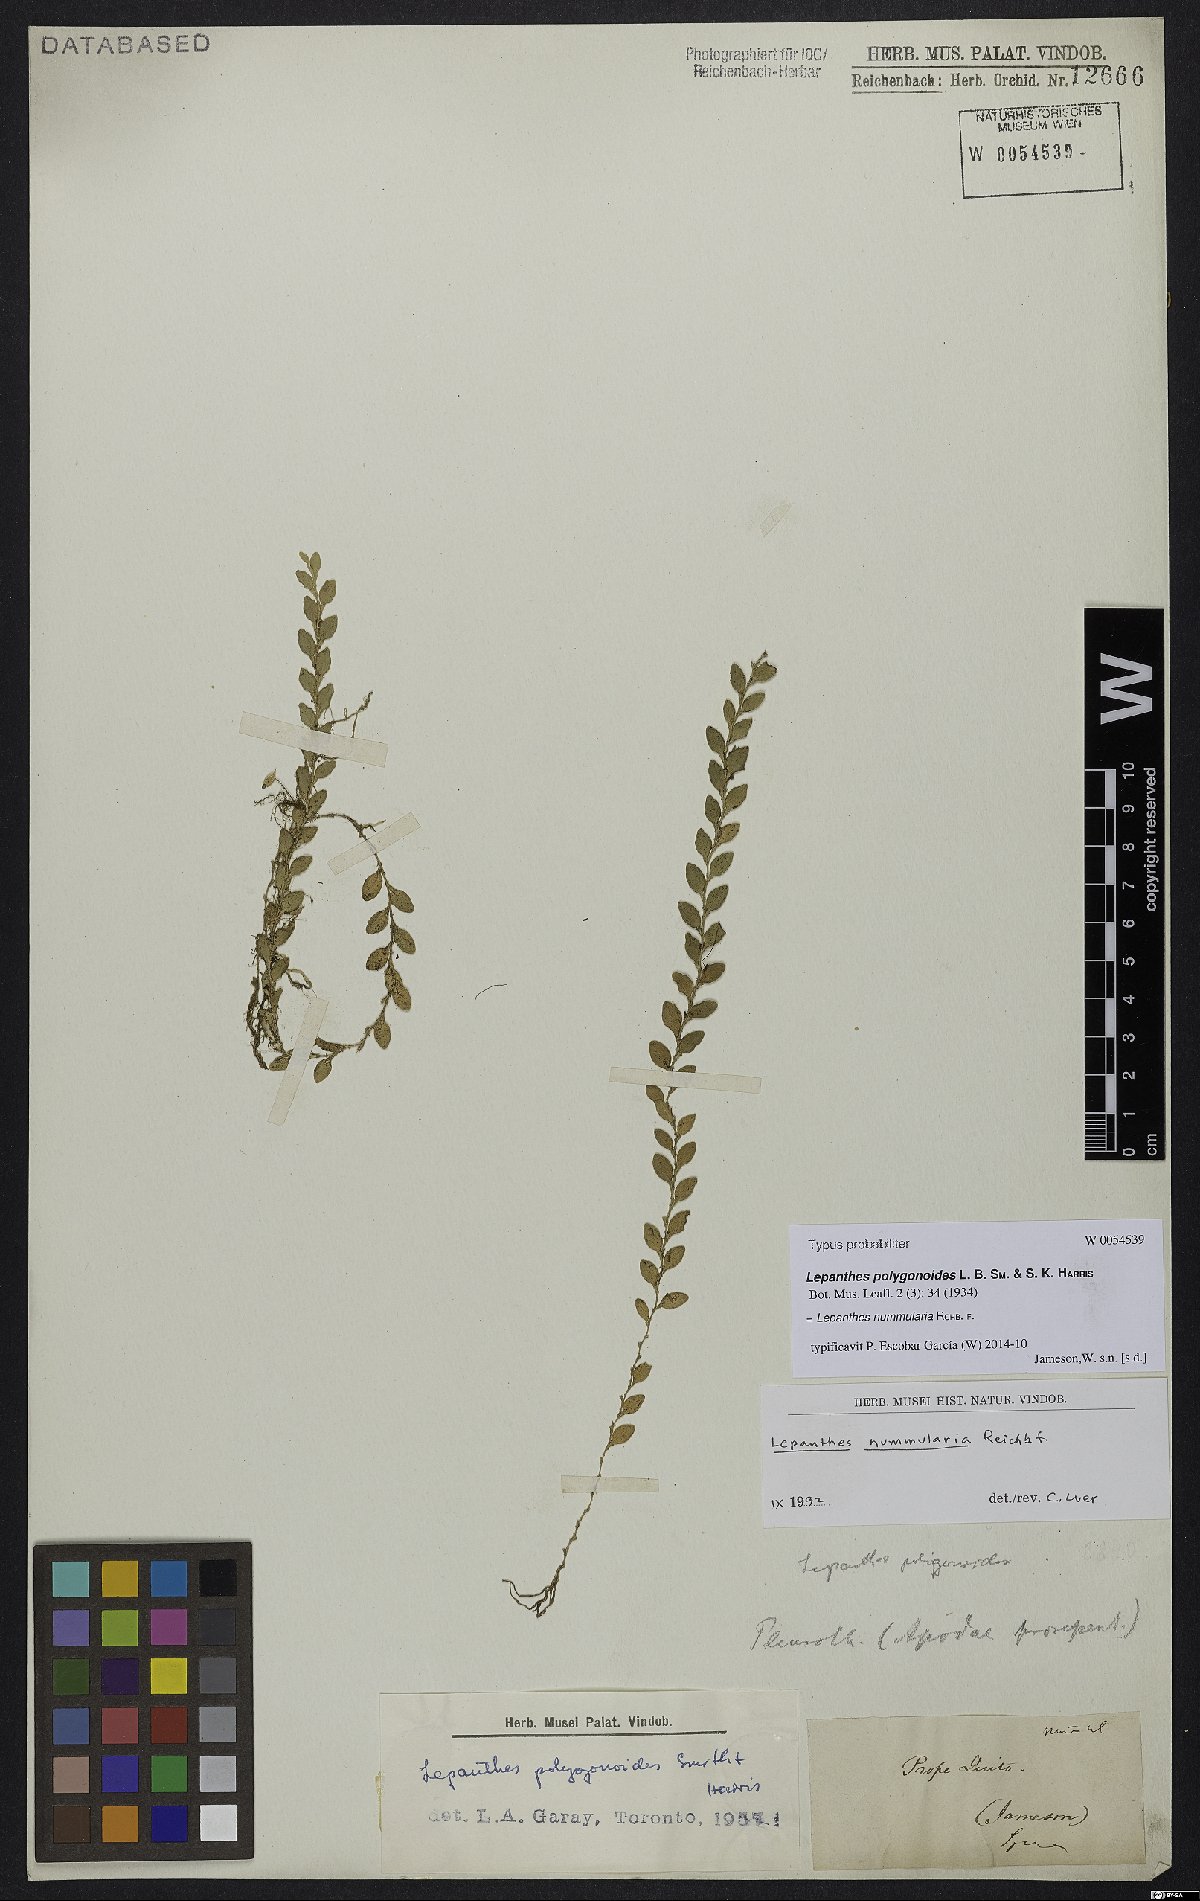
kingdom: Plantae
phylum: Tracheophyta
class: Liliopsida
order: Asparagales
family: Orchidaceae
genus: Andinia
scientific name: Andinia nummularia
